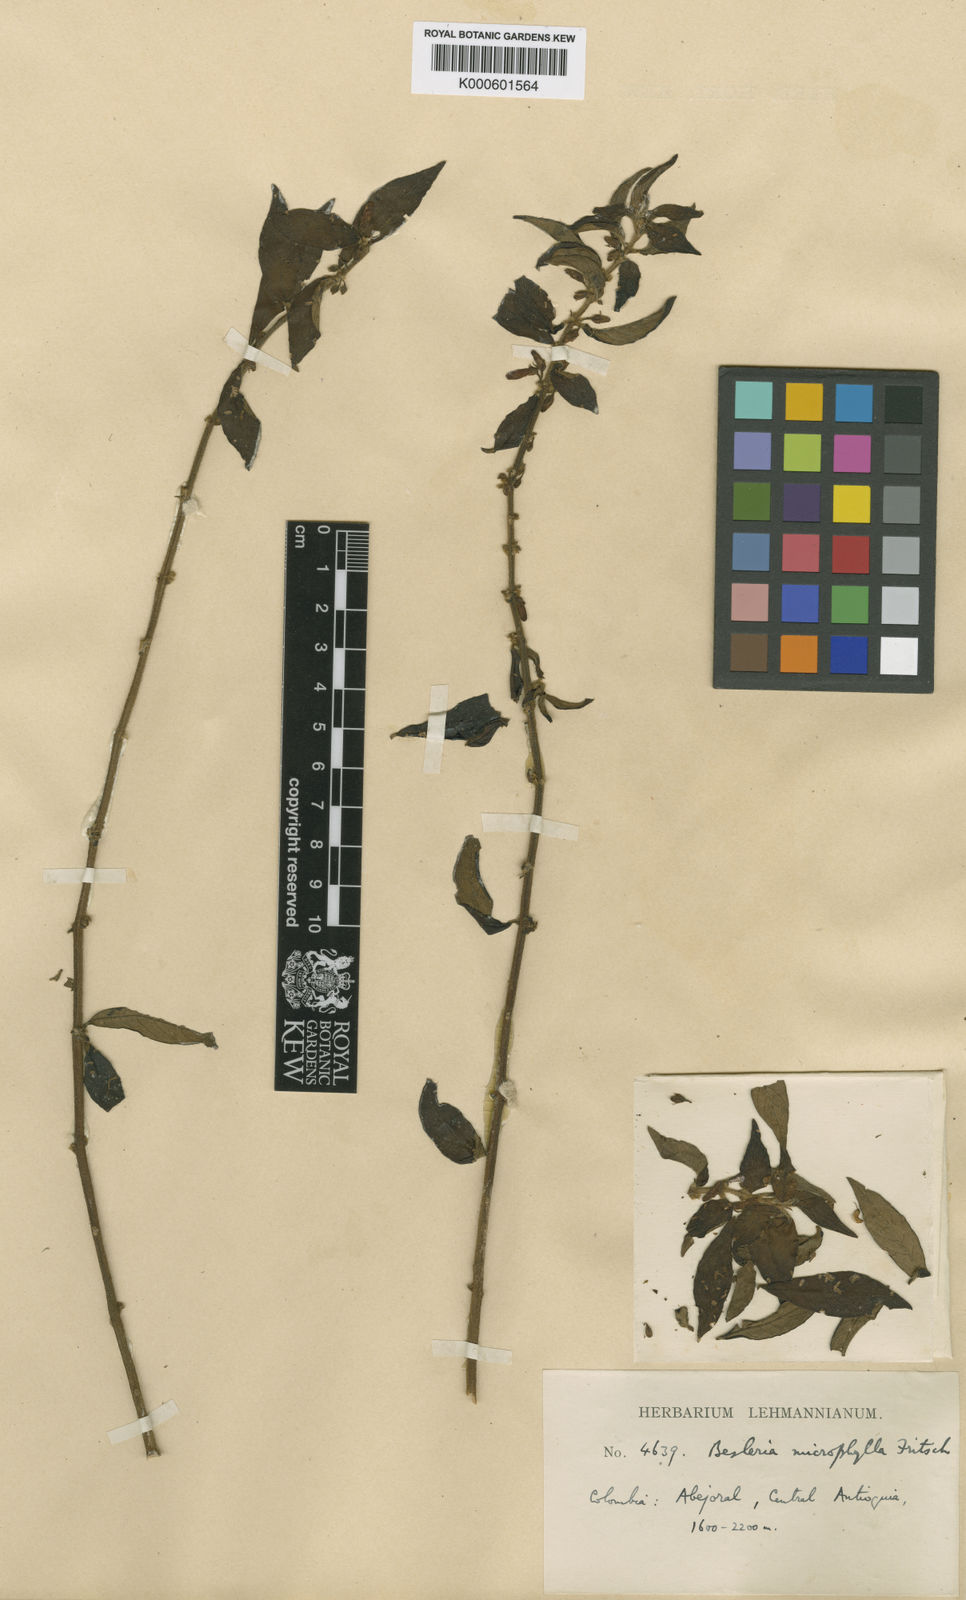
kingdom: Plantae
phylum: Tracheophyta
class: Magnoliopsida
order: Lamiales
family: Gesneriaceae
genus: Besleria
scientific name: Besleria microphylla
